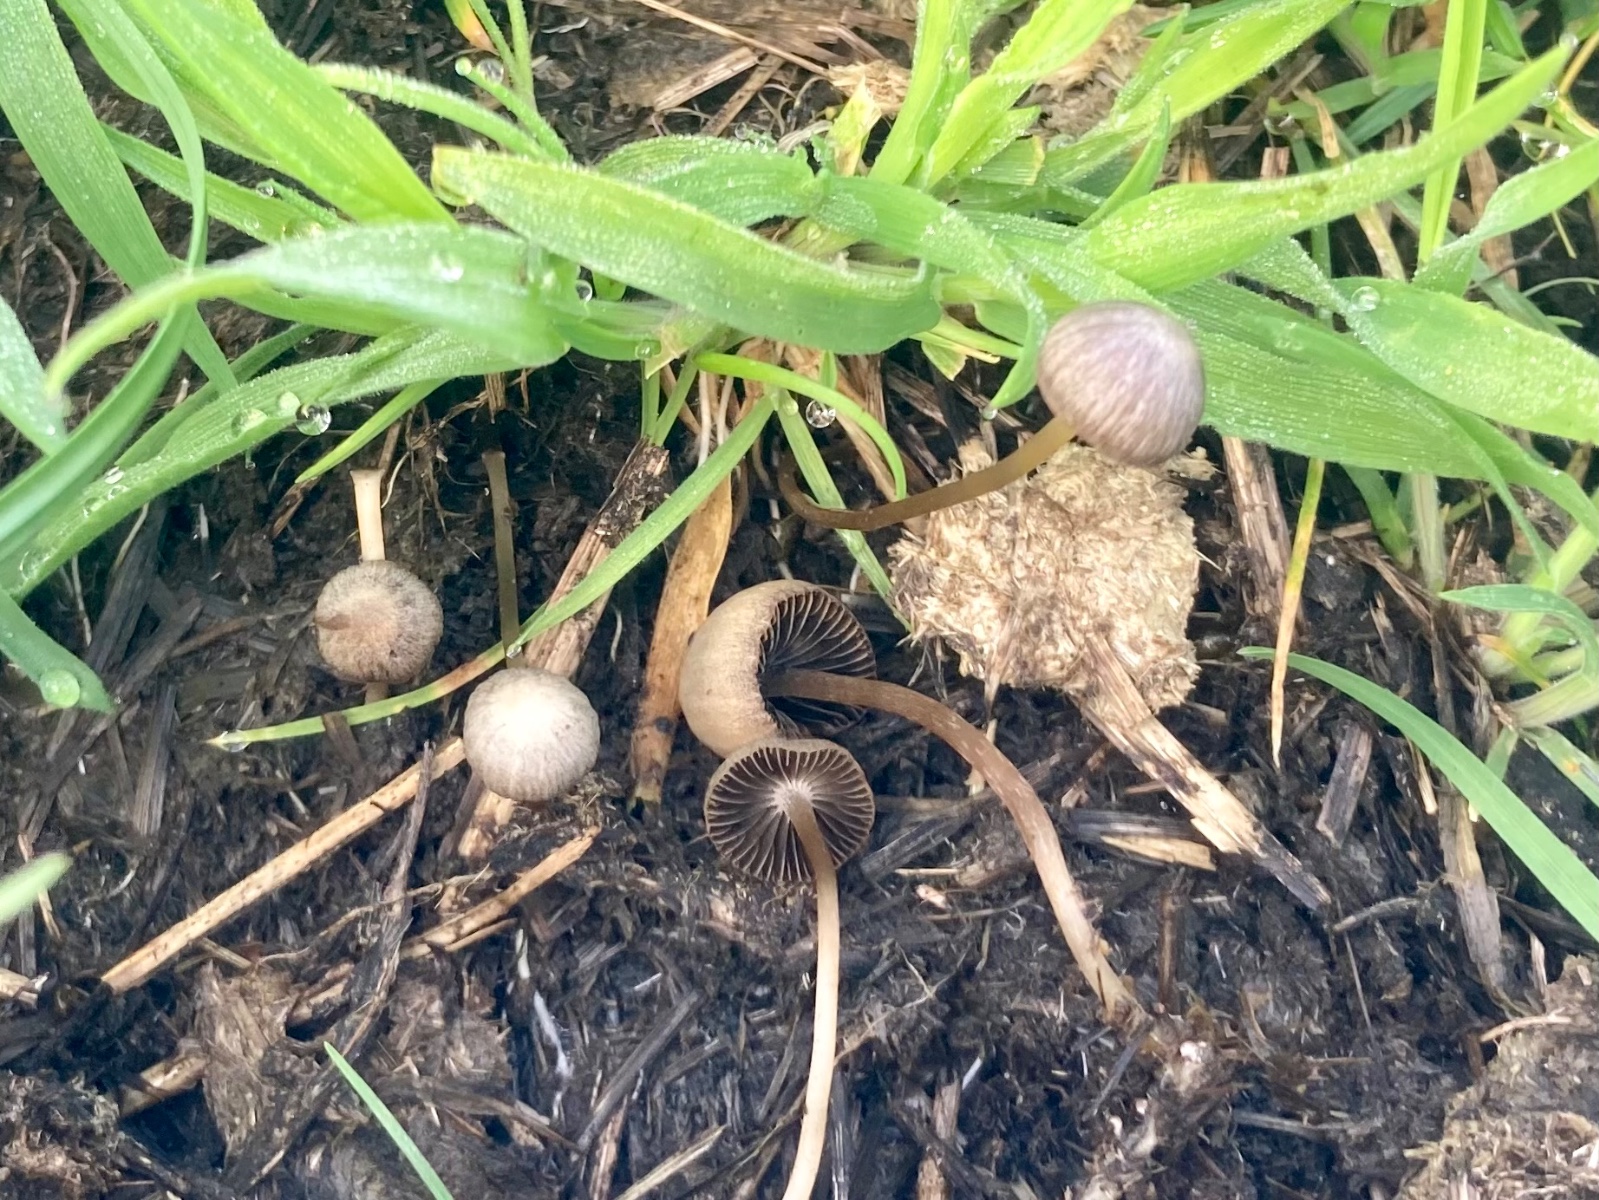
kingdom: Fungi
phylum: Basidiomycota
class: Agaricomycetes
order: Agaricales
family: Psathyrellaceae
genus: Psathyrella
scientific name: Psathyrella
